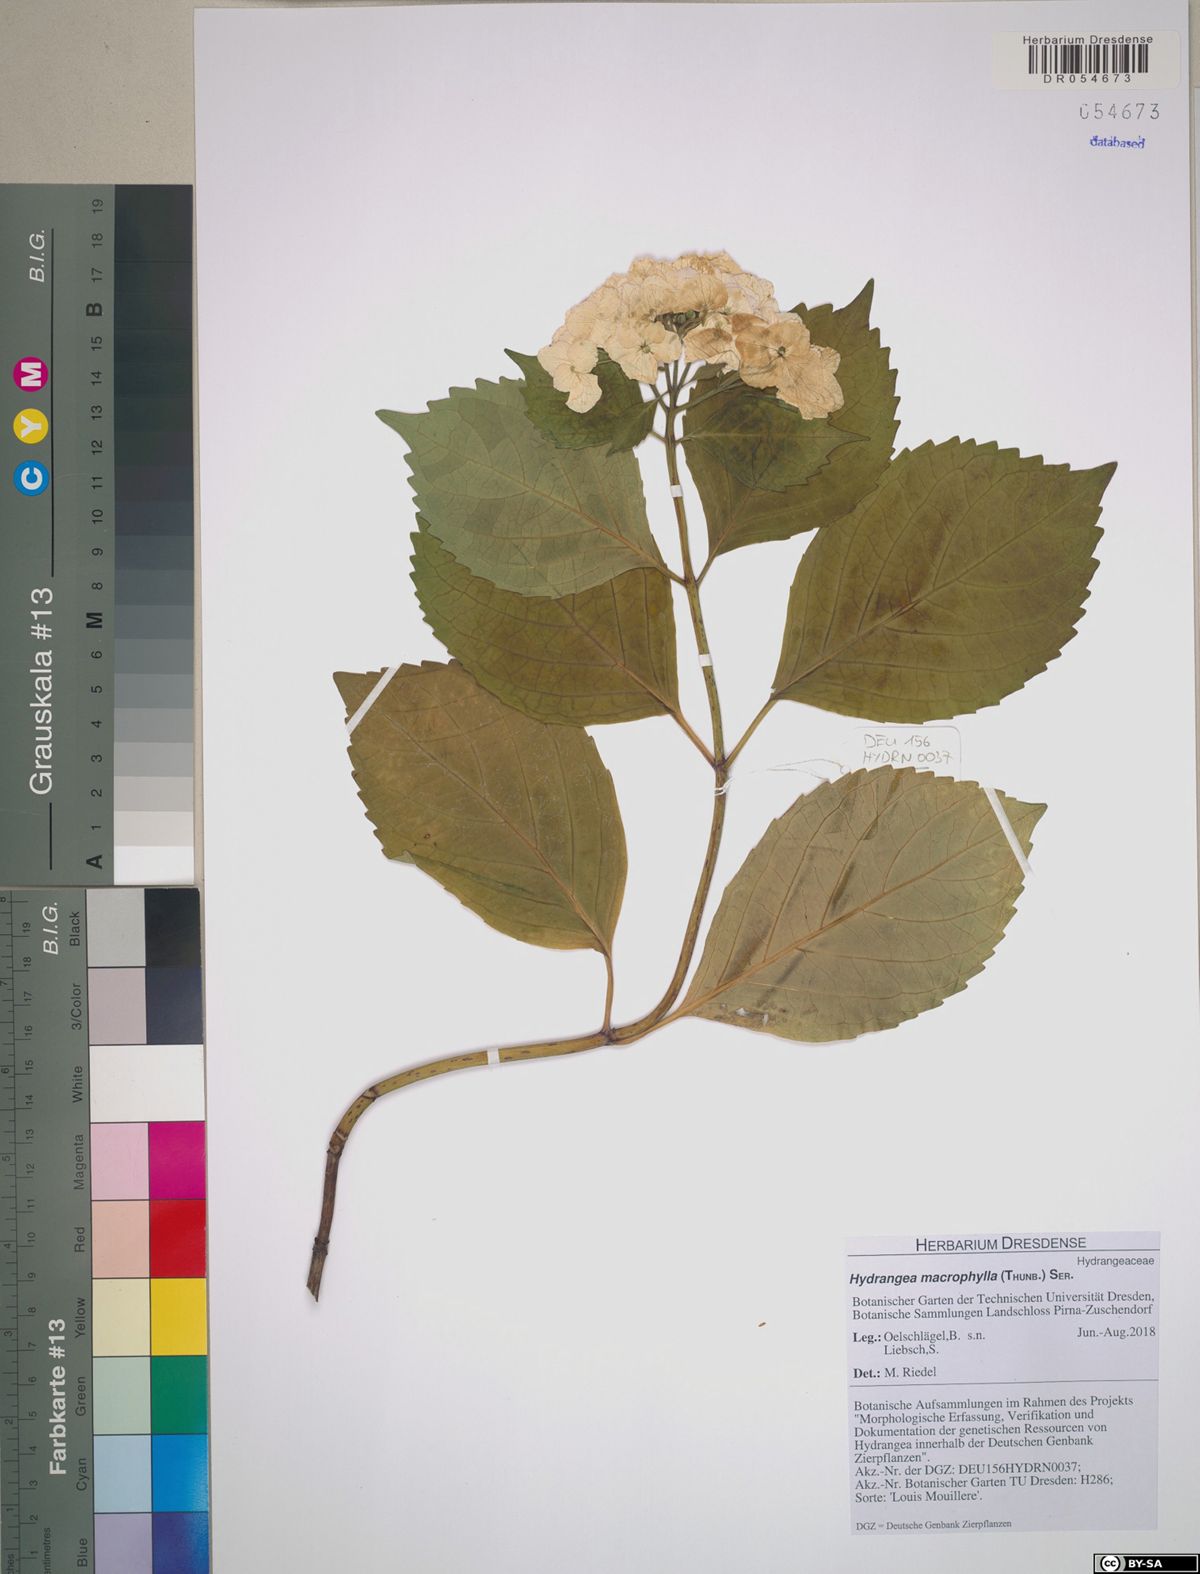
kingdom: Plantae
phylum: Tracheophyta
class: Magnoliopsida
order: Cornales
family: Hydrangeaceae
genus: Hydrangea
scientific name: Hydrangea macrophylla
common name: Hydrangea
